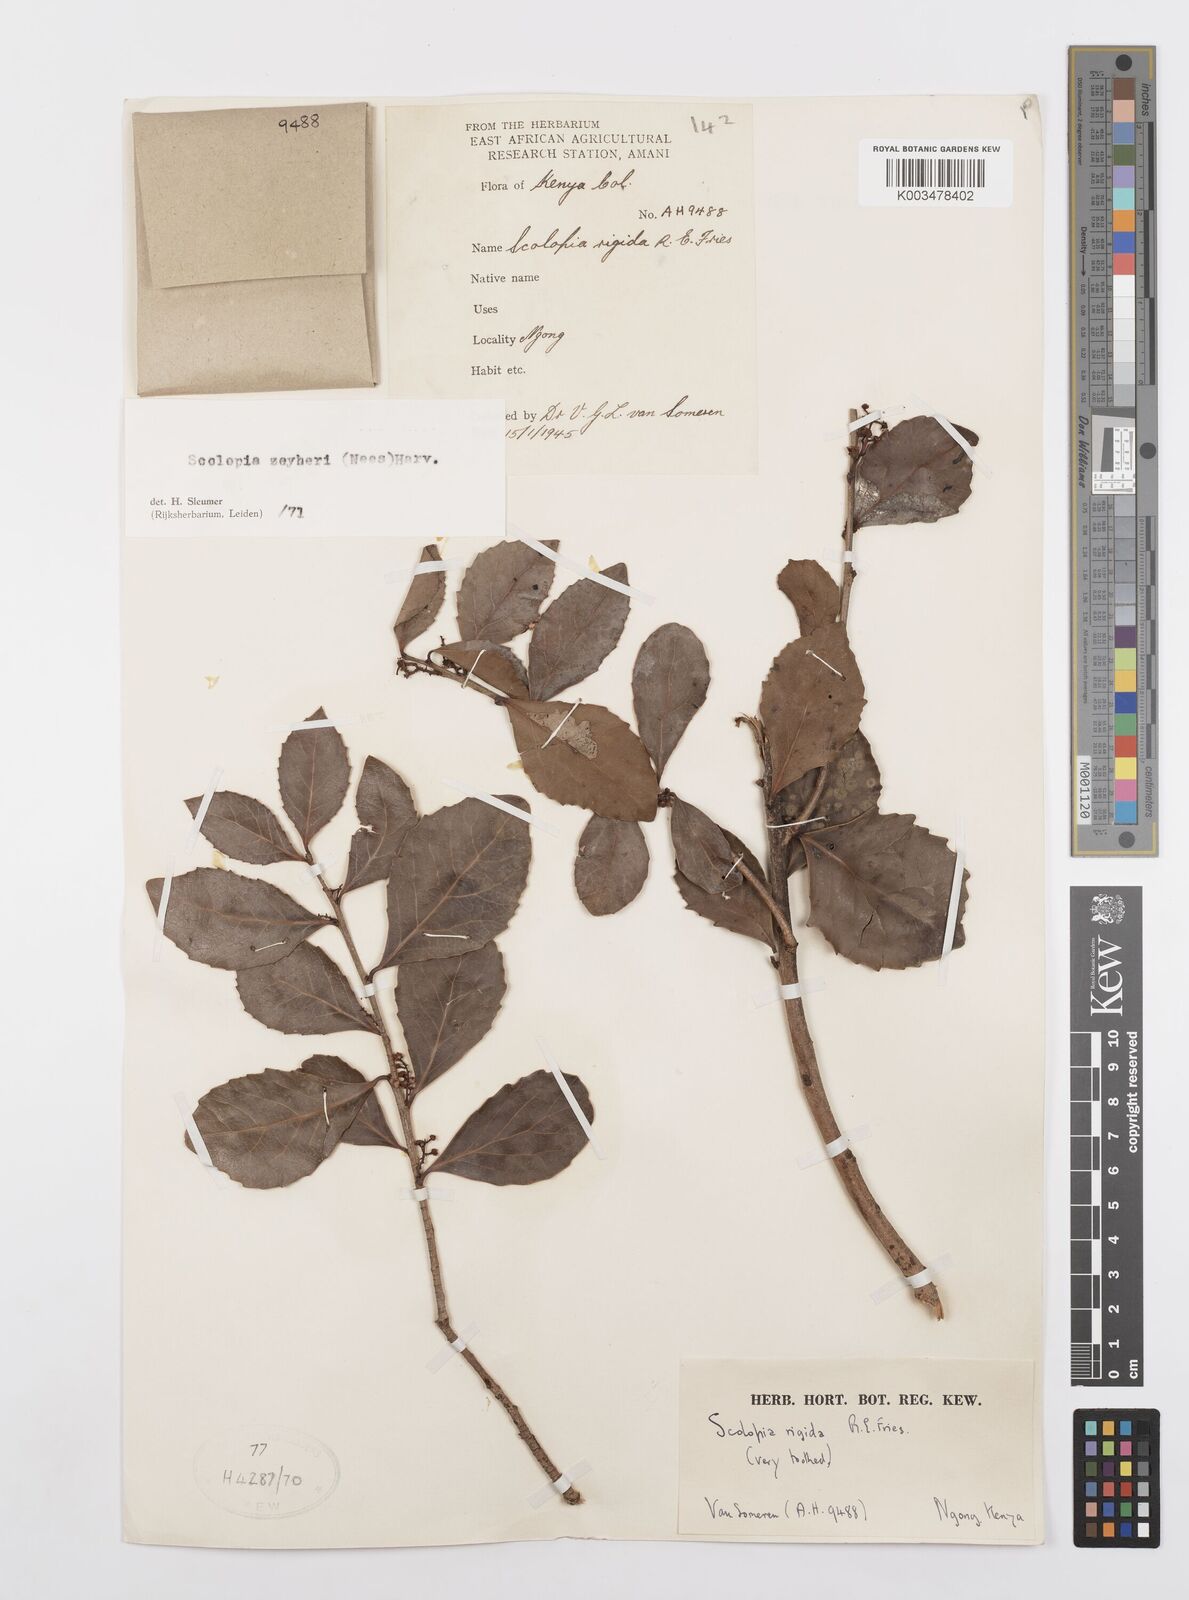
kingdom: Plantae
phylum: Tracheophyta
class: Magnoliopsida
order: Malpighiales
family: Salicaceae
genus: Scolopia
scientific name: Scolopia zeyheri
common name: Thorn pear
